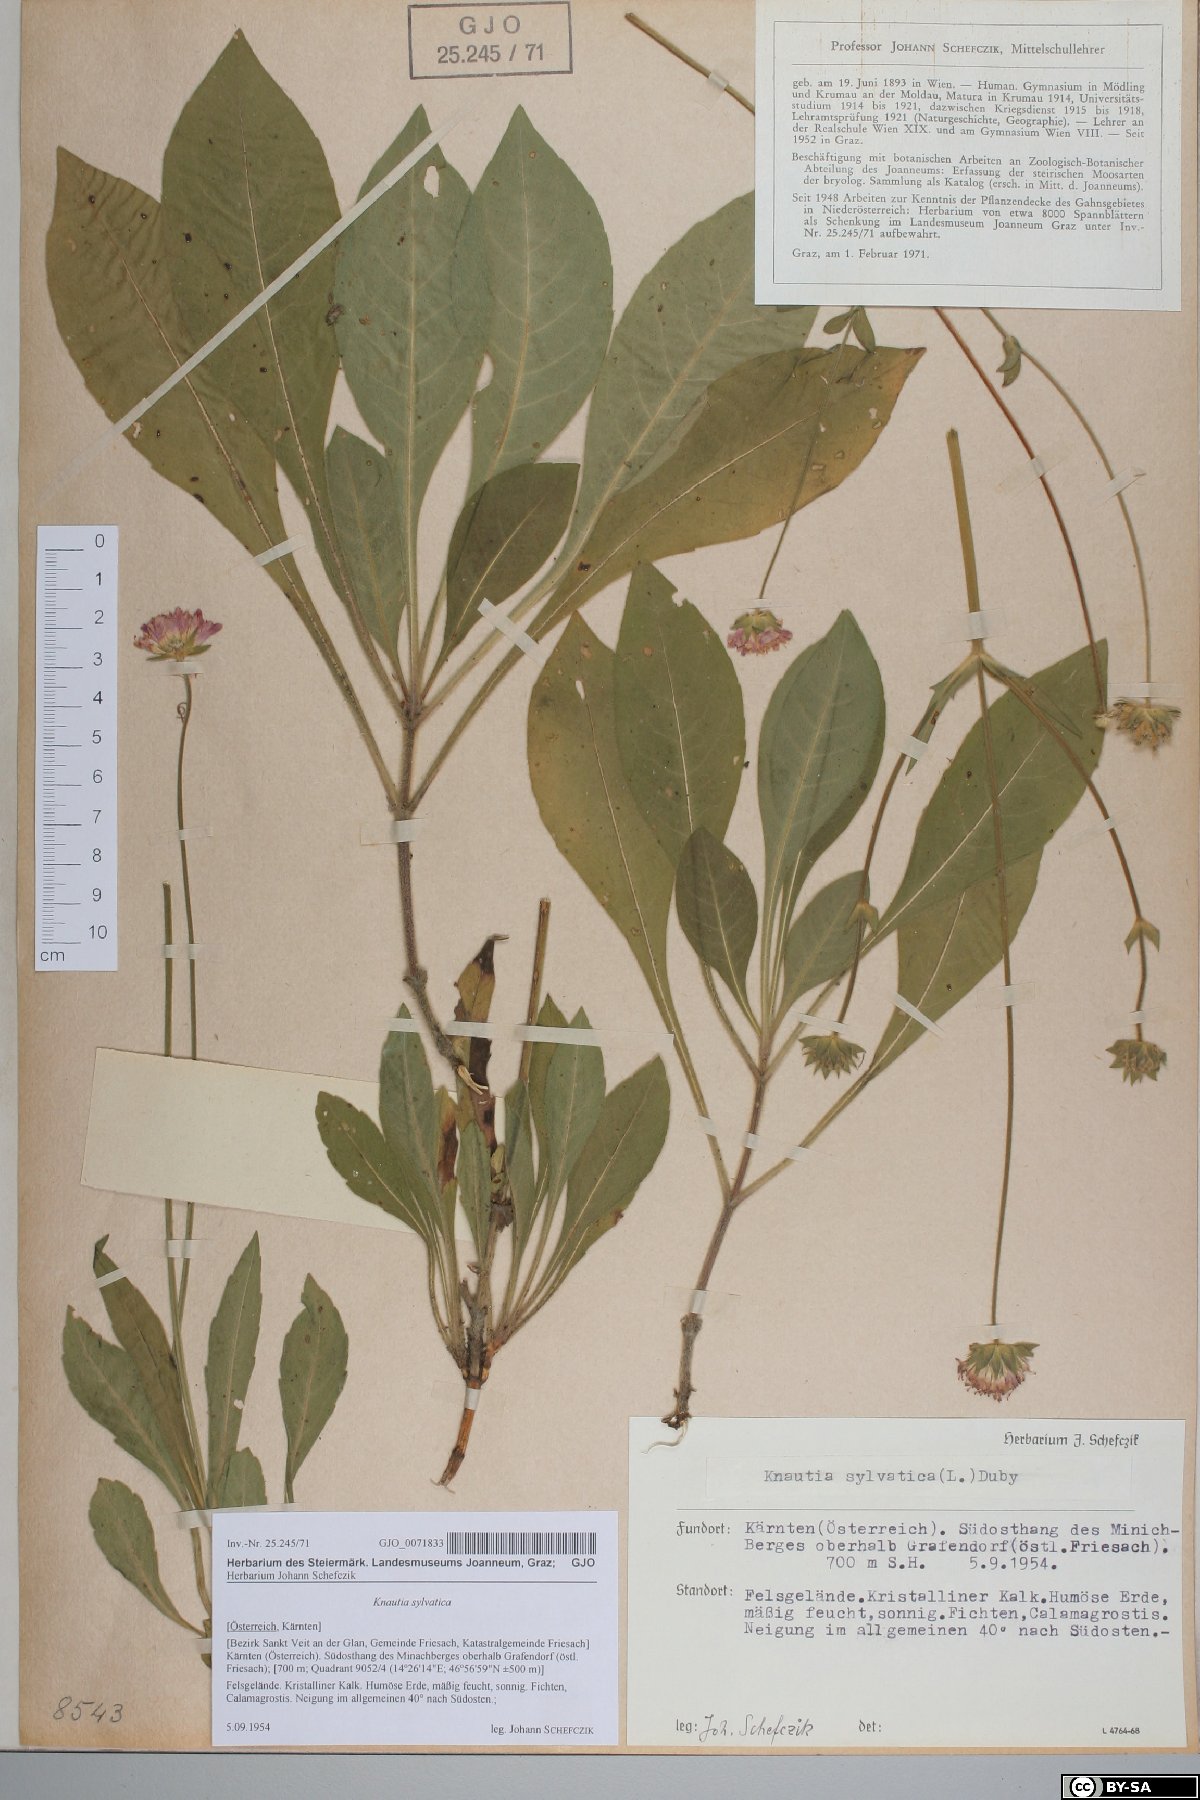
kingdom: Plantae
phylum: Tracheophyta
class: Magnoliopsida
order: Dipsacales
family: Caprifoliaceae
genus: Knautia
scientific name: Knautia drymeia
